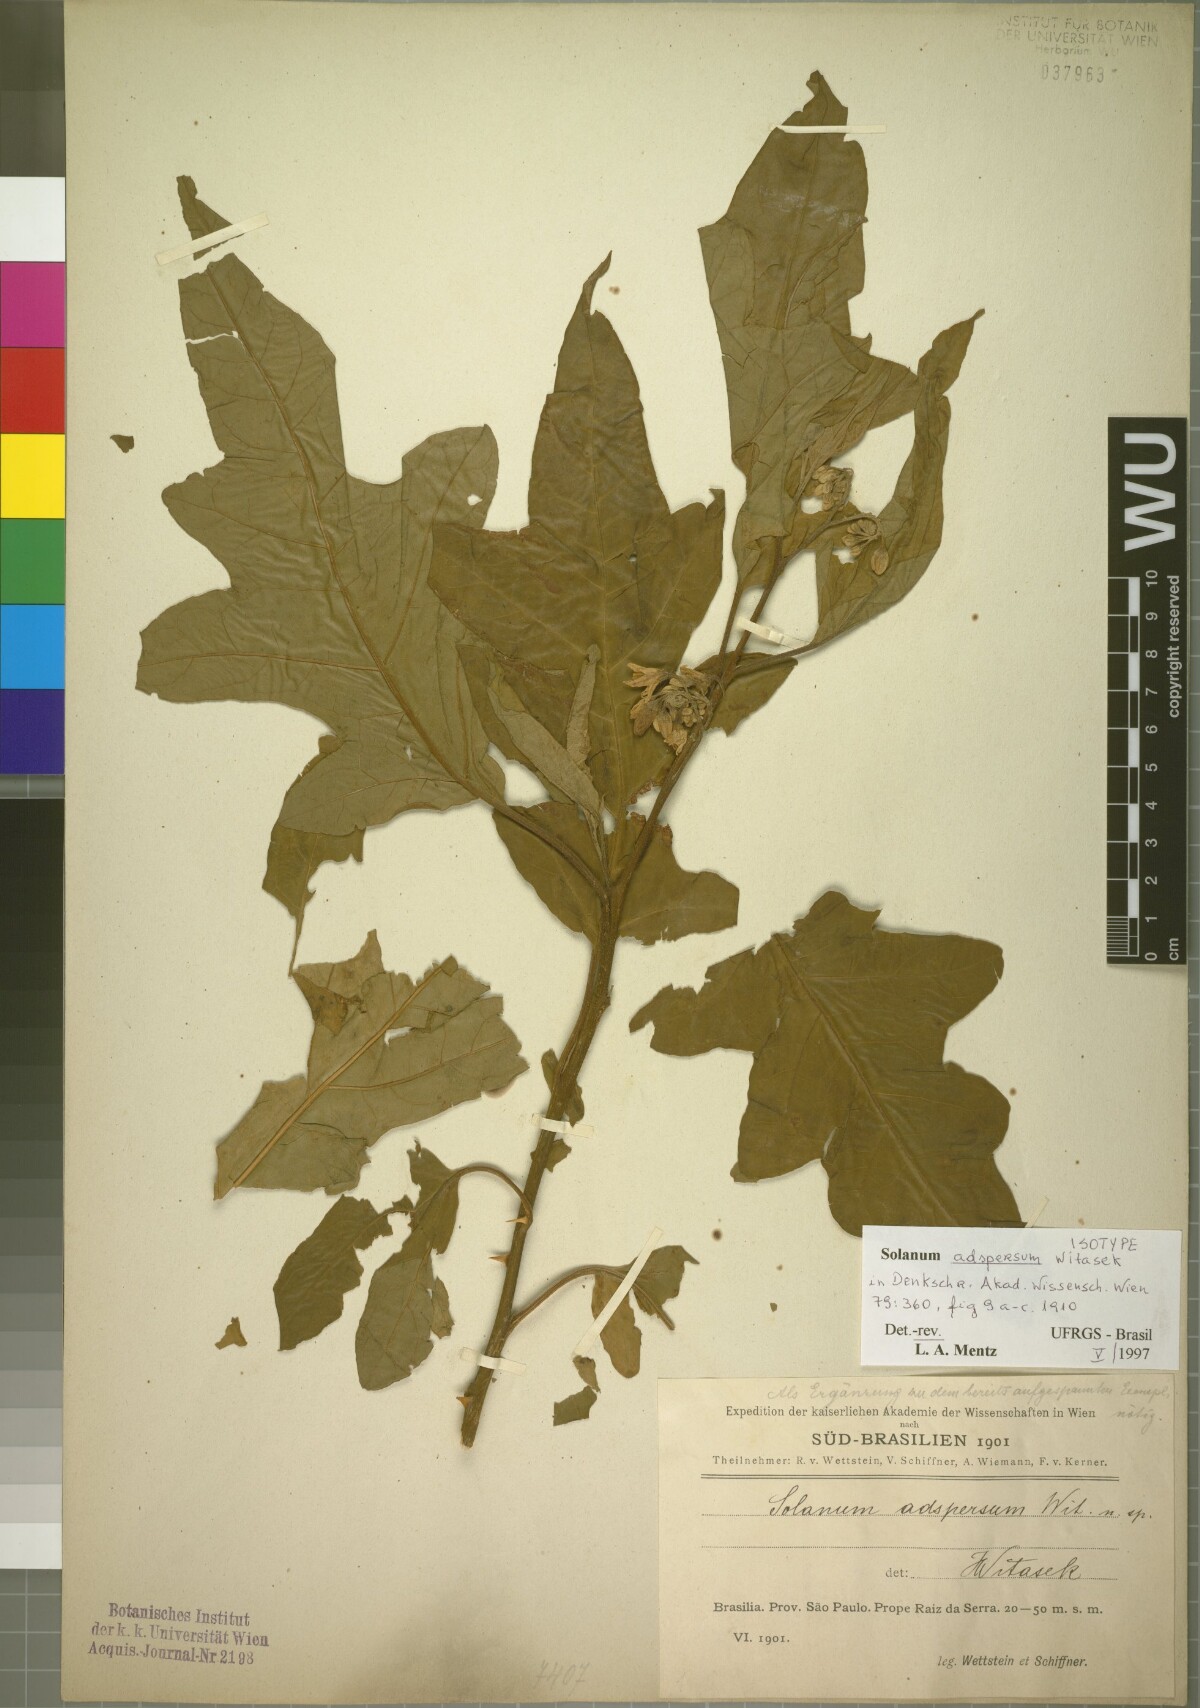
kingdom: Plantae
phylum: Tracheophyta
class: Magnoliopsida
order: Solanales
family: Solanaceae
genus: Solanum
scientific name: Solanum adspersum
